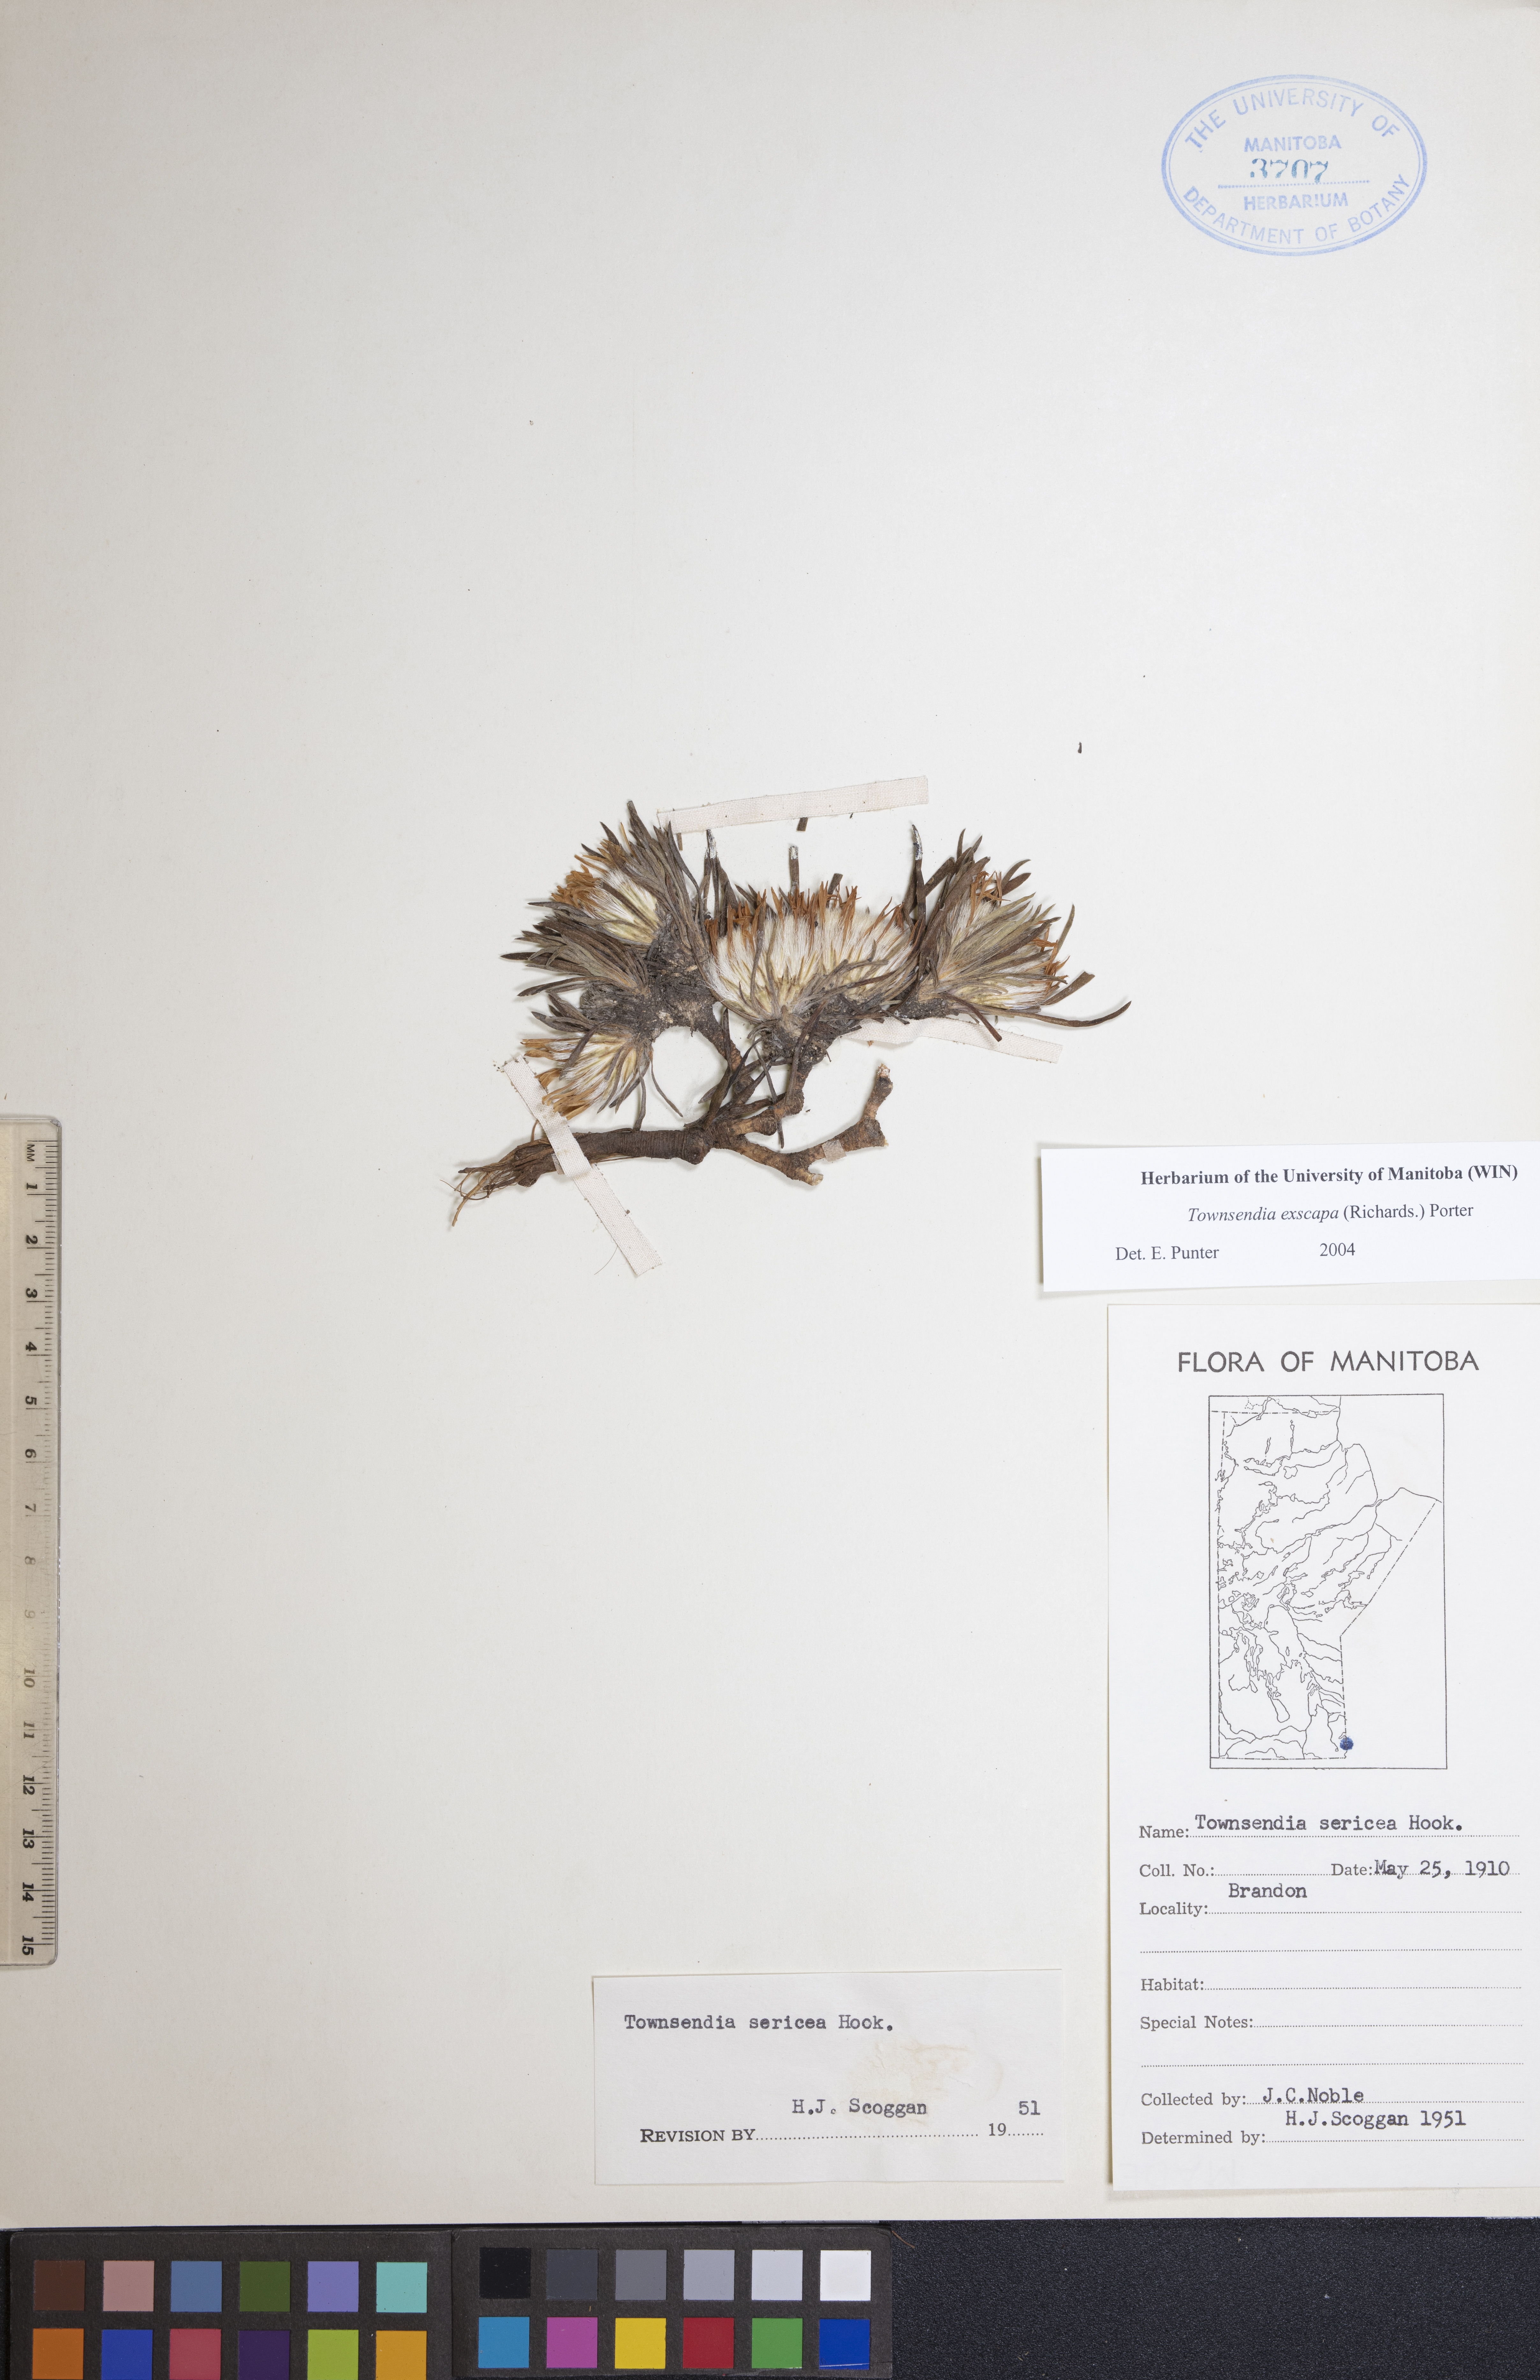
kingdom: Plantae
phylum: Tracheophyta
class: Magnoliopsida
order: Asterales
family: Asteraceae
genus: Townsendia
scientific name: Townsendia exscapa
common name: Dwarf townsendia
